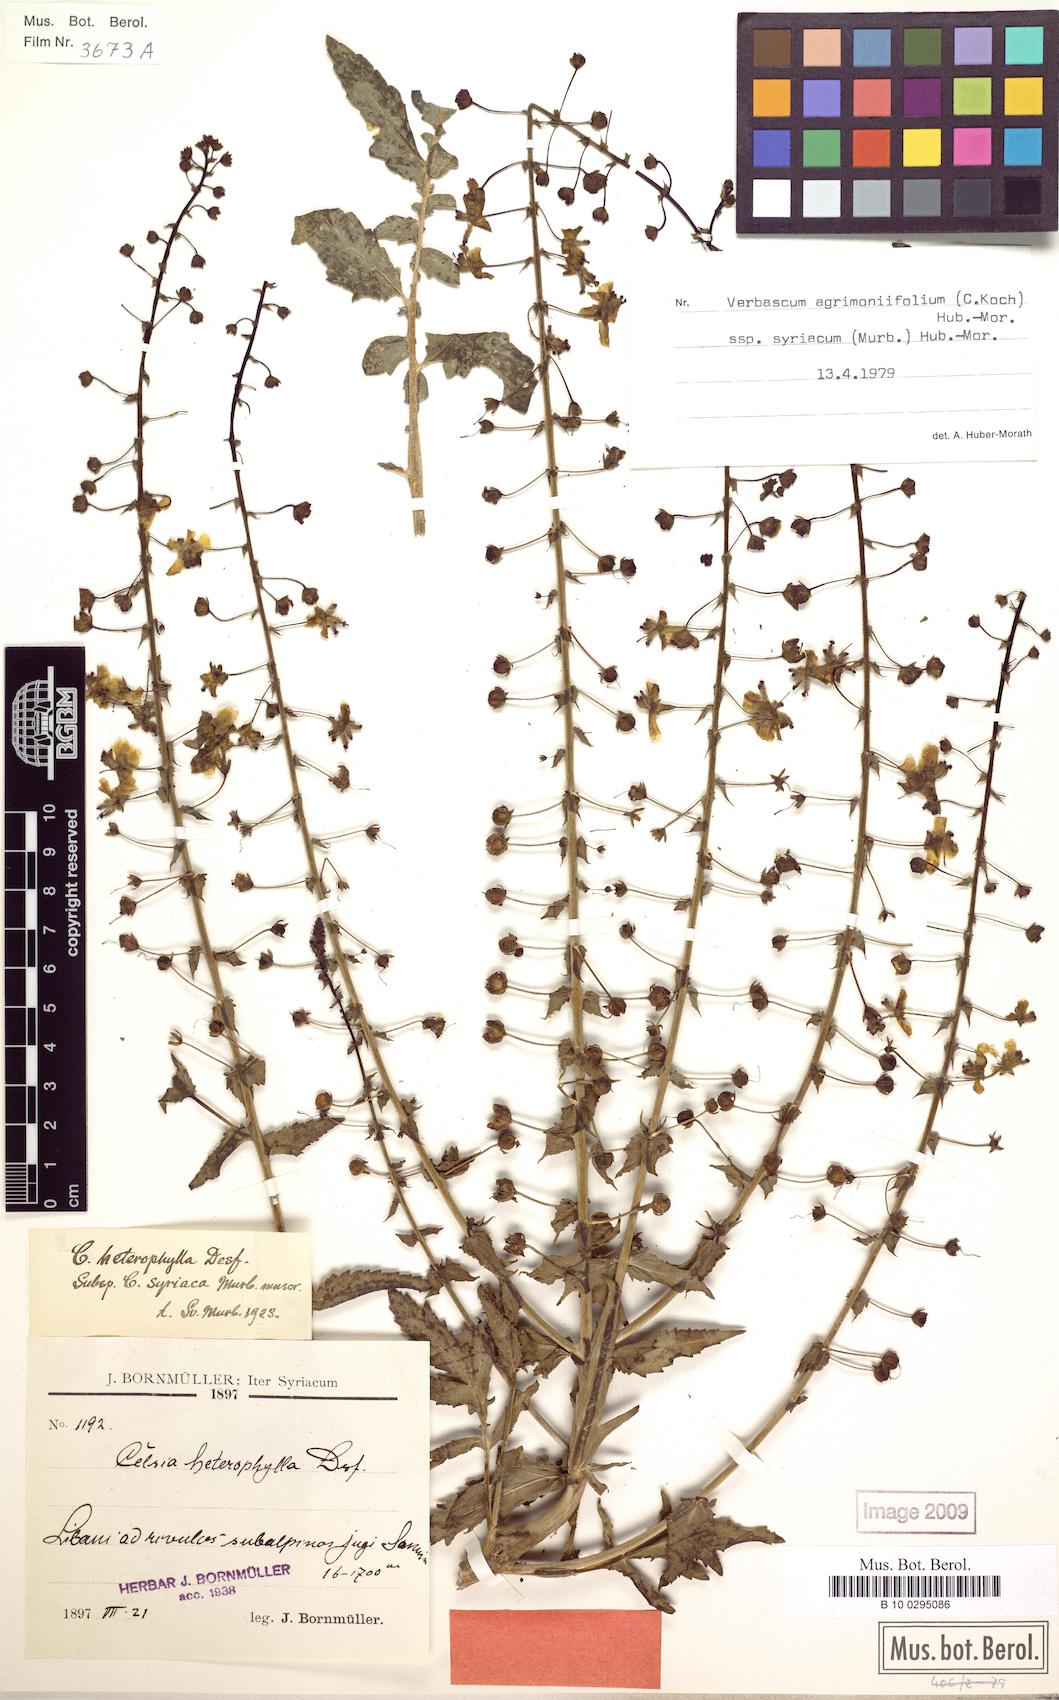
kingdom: Plantae
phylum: Tracheophyta
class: Magnoliopsida
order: Lamiales
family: Scrophulariaceae
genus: Verbascum
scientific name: Verbascum agrimoniifolium
